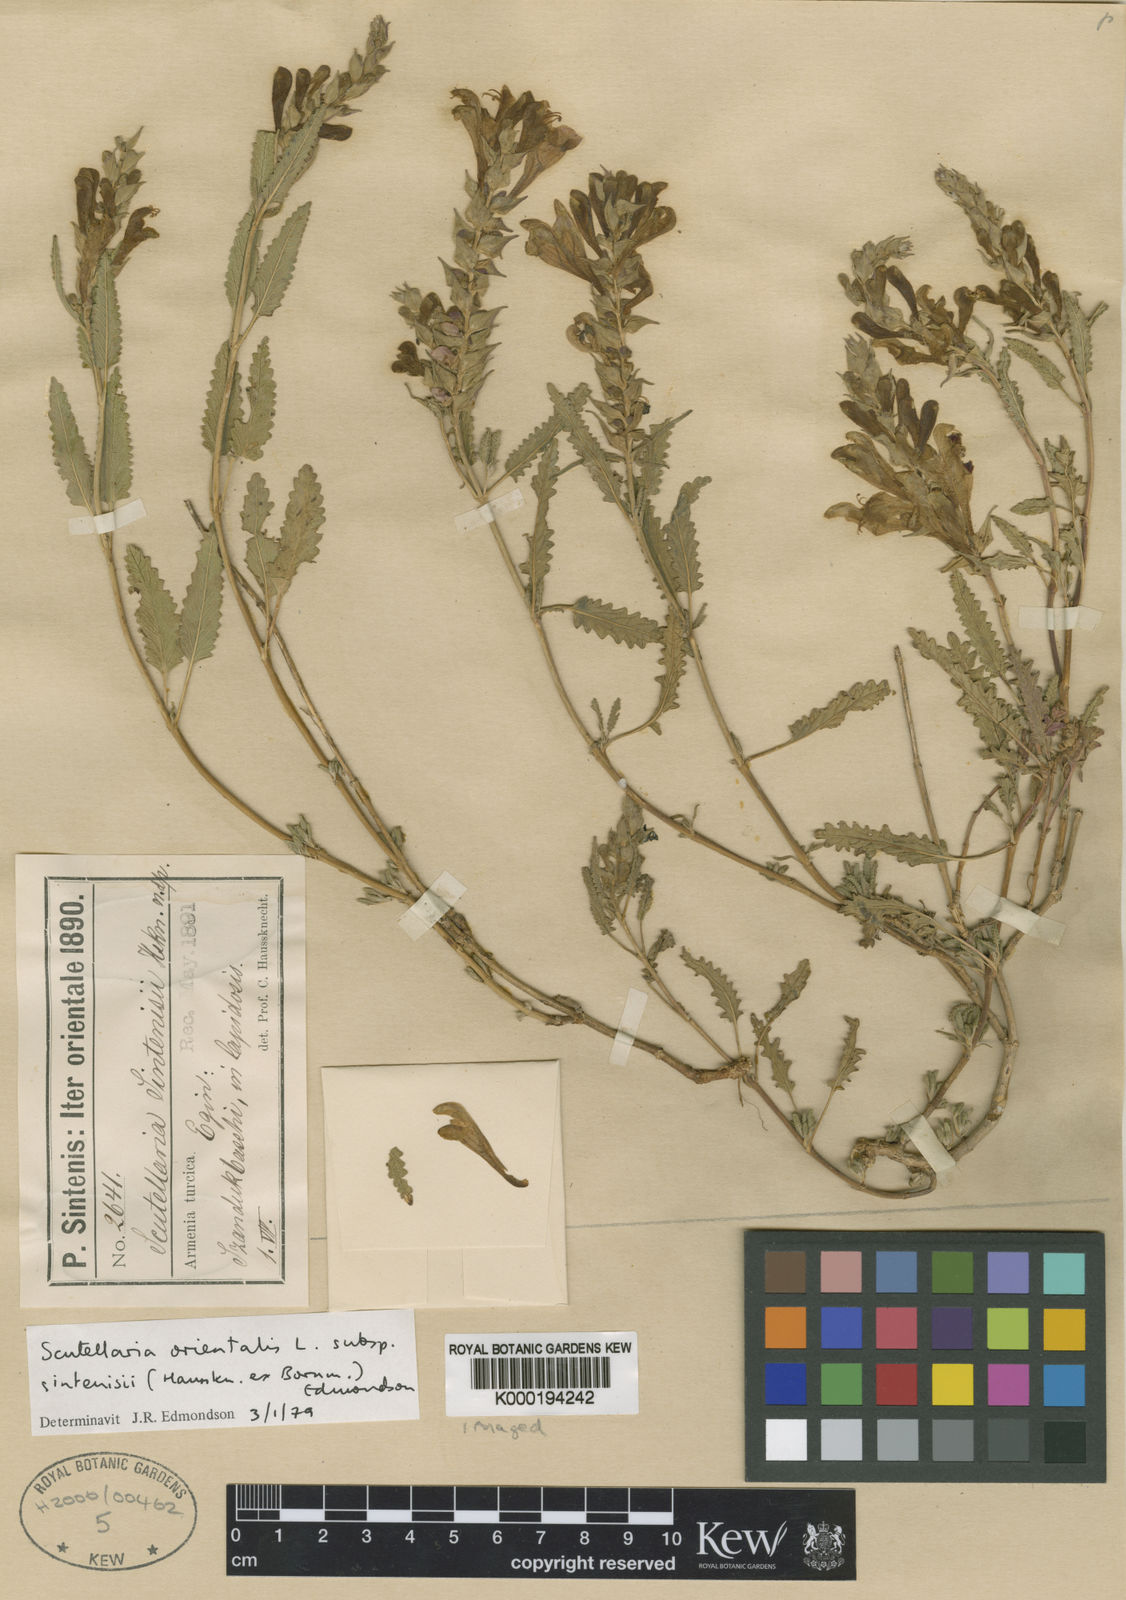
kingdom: Plantae
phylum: Tracheophyta
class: Magnoliopsida
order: Lamiales
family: Lamiaceae
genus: Scutellaria
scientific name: Scutellaria orientalis
